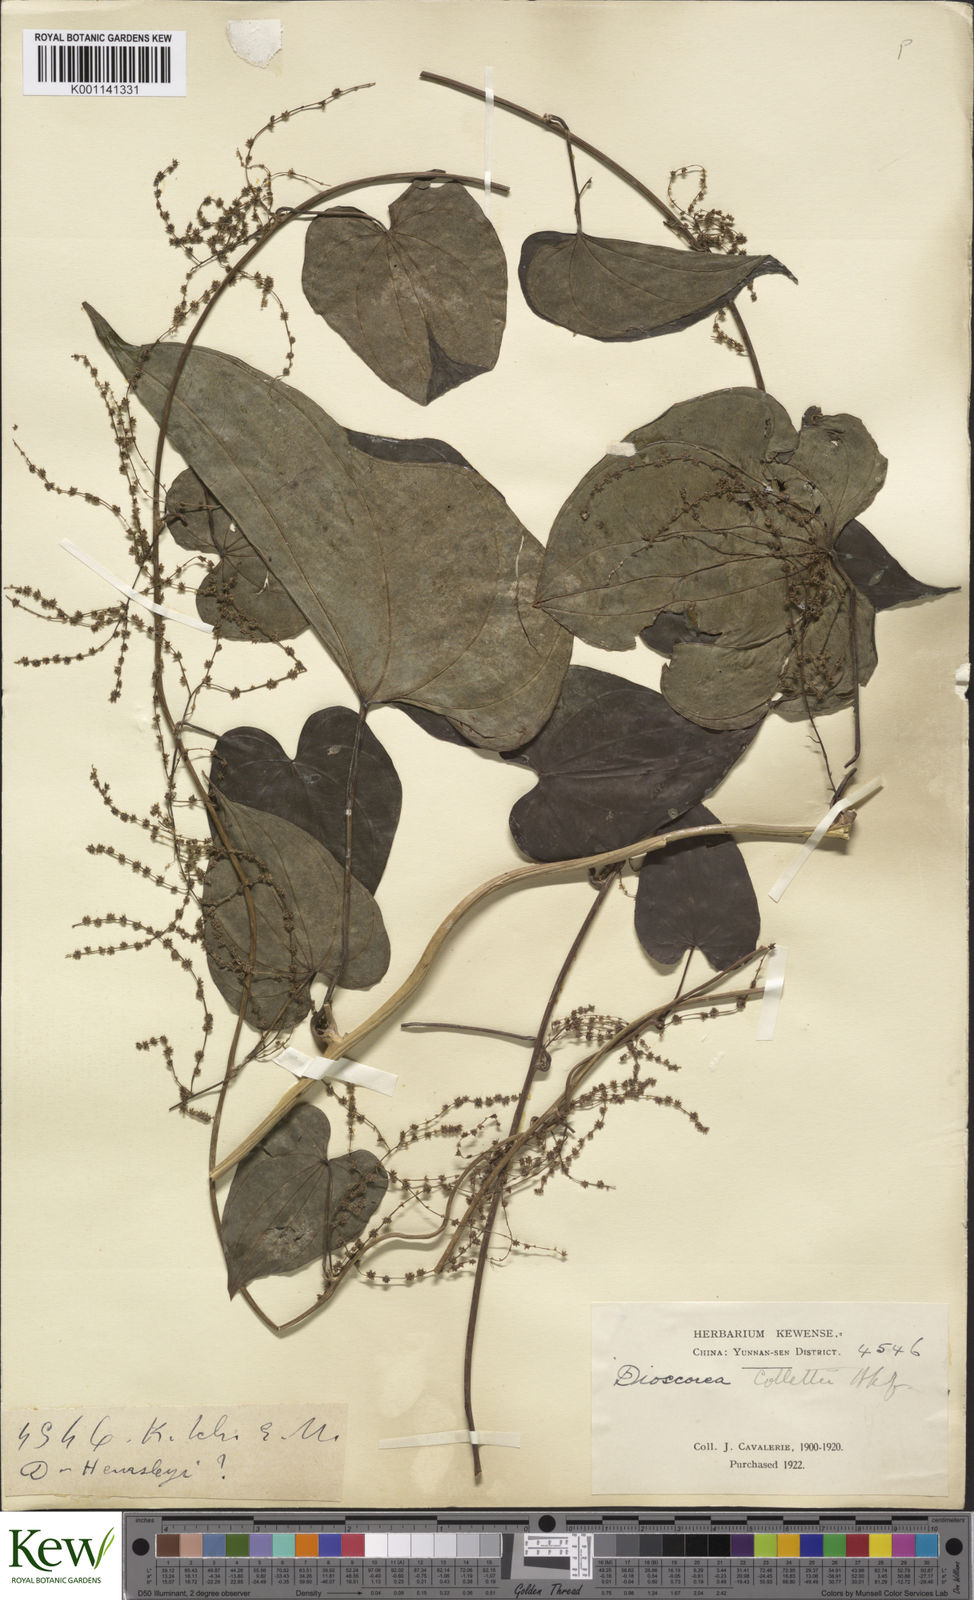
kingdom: Plantae
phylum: Tracheophyta
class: Liliopsida
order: Dioscoreales
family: Dioscoreaceae
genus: Dioscorea
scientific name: Dioscorea collettii
